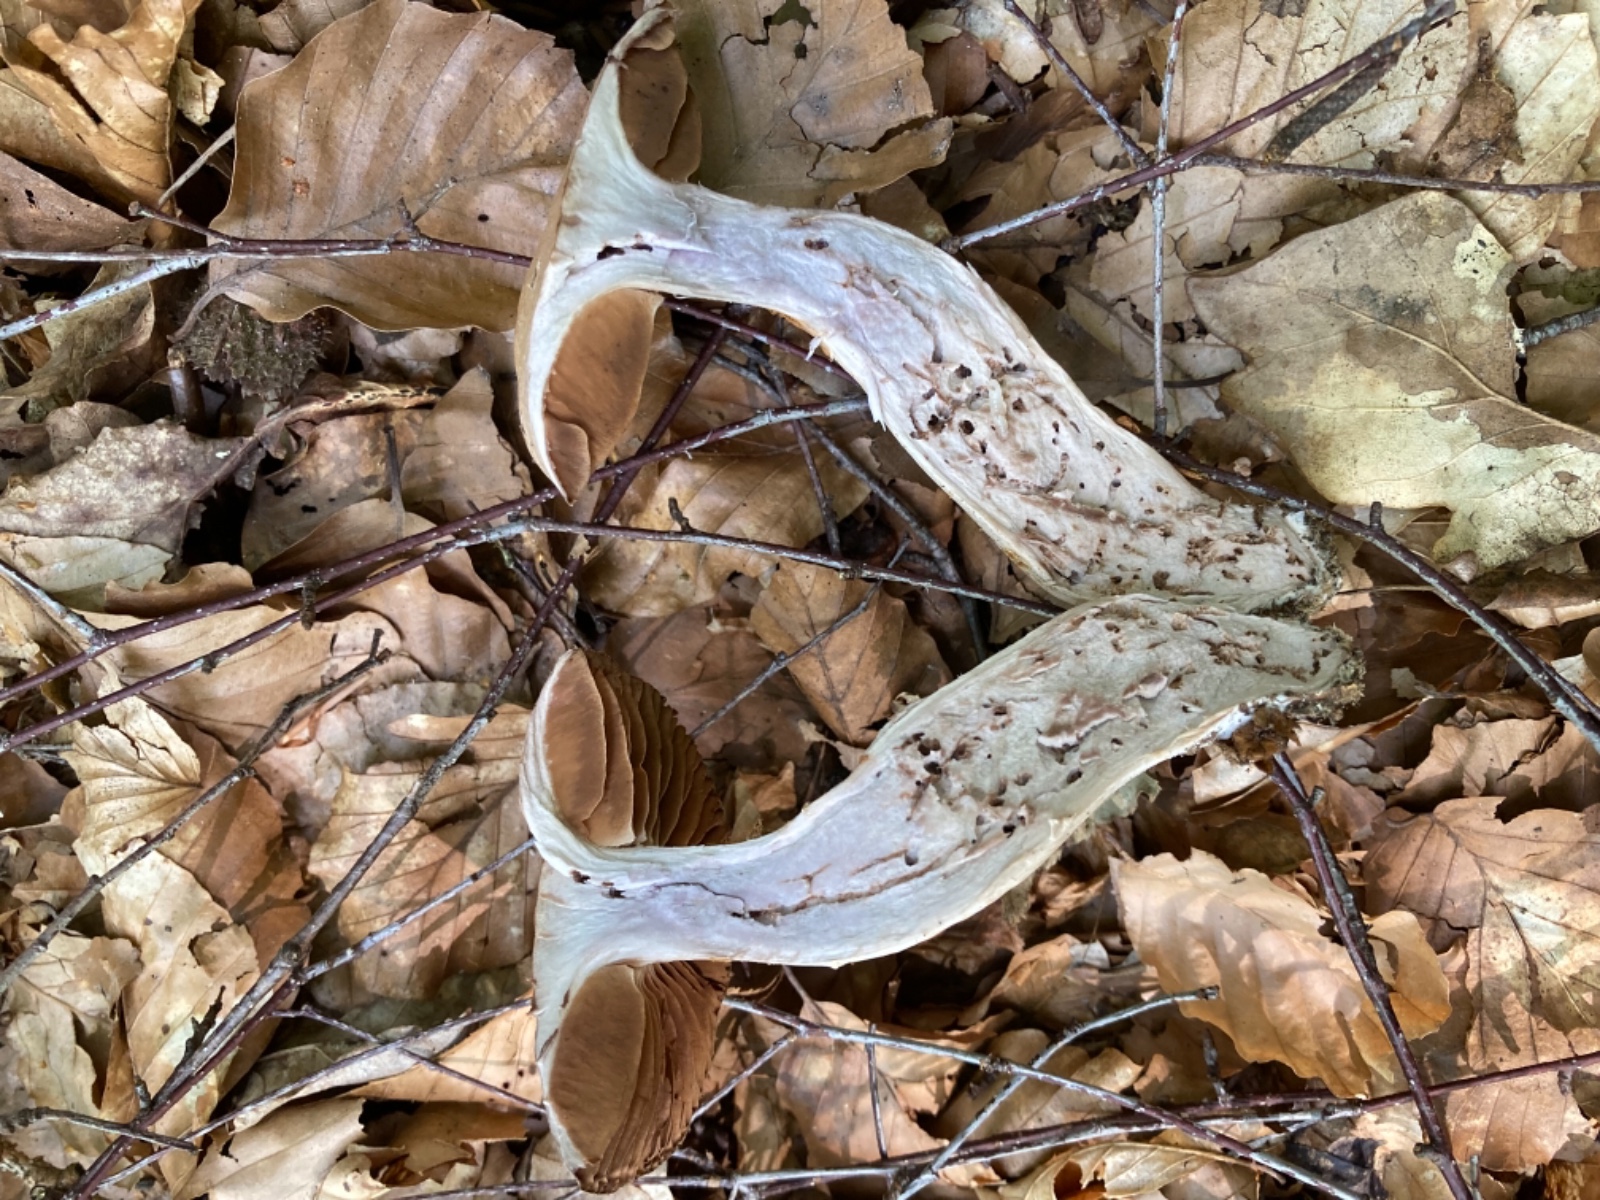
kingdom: Fungi
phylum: Basidiomycota
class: Agaricomycetes
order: Agaricales
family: Cortinariaceae
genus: Cortinarius
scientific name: Cortinarius torvus
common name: champignonagtig slørhat
